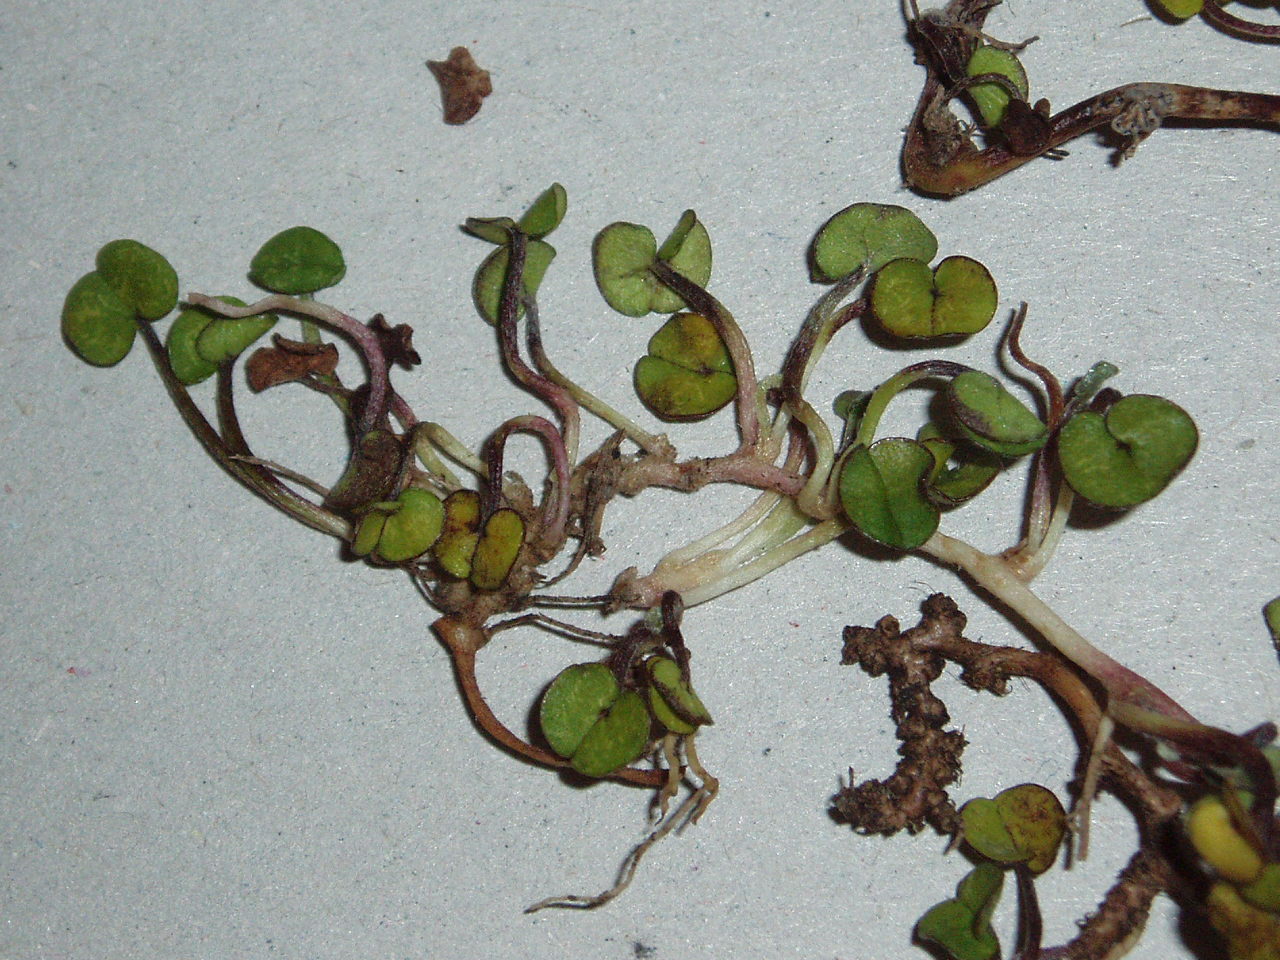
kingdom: Plantae
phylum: Tracheophyta
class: Magnoliopsida
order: Solanales
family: Convolvulaceae
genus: Dichondra
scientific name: Dichondra brevifolia
